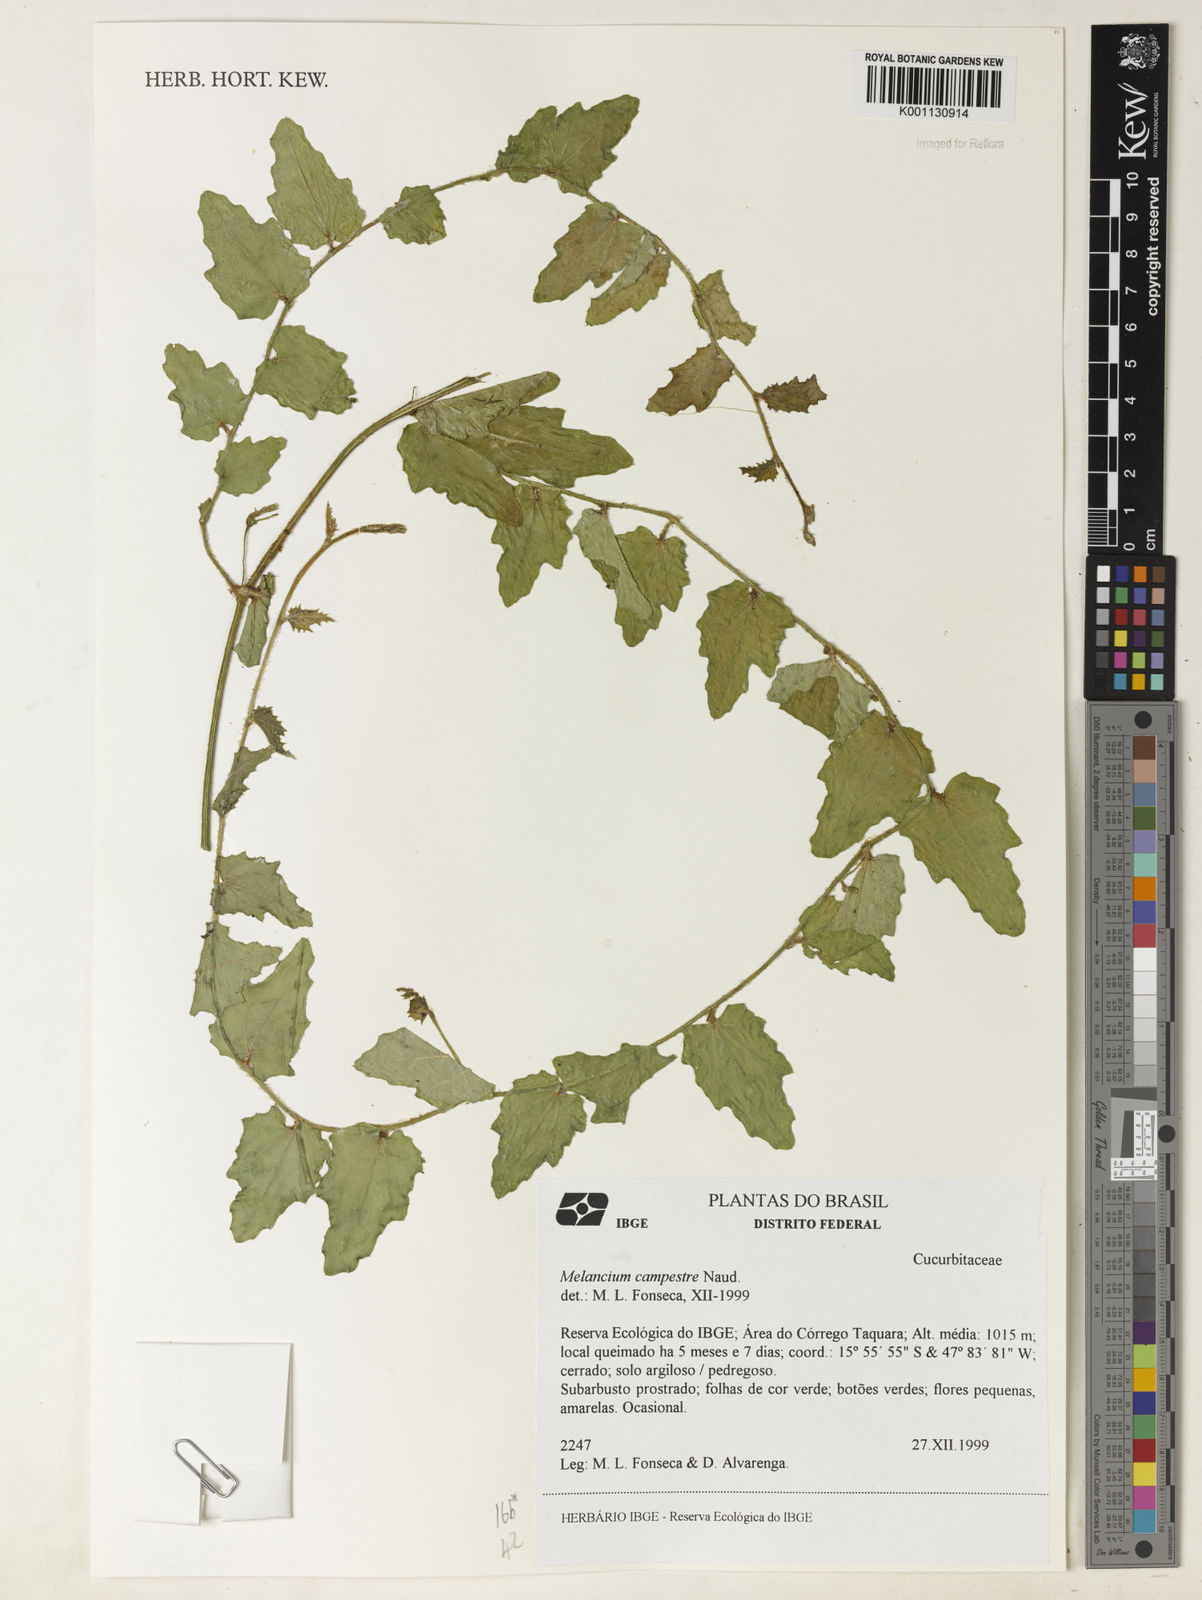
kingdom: Plantae
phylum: Tracheophyta
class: Magnoliopsida
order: Cucurbitales
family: Cucurbitaceae
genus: Melothria
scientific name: Melothria campestris
